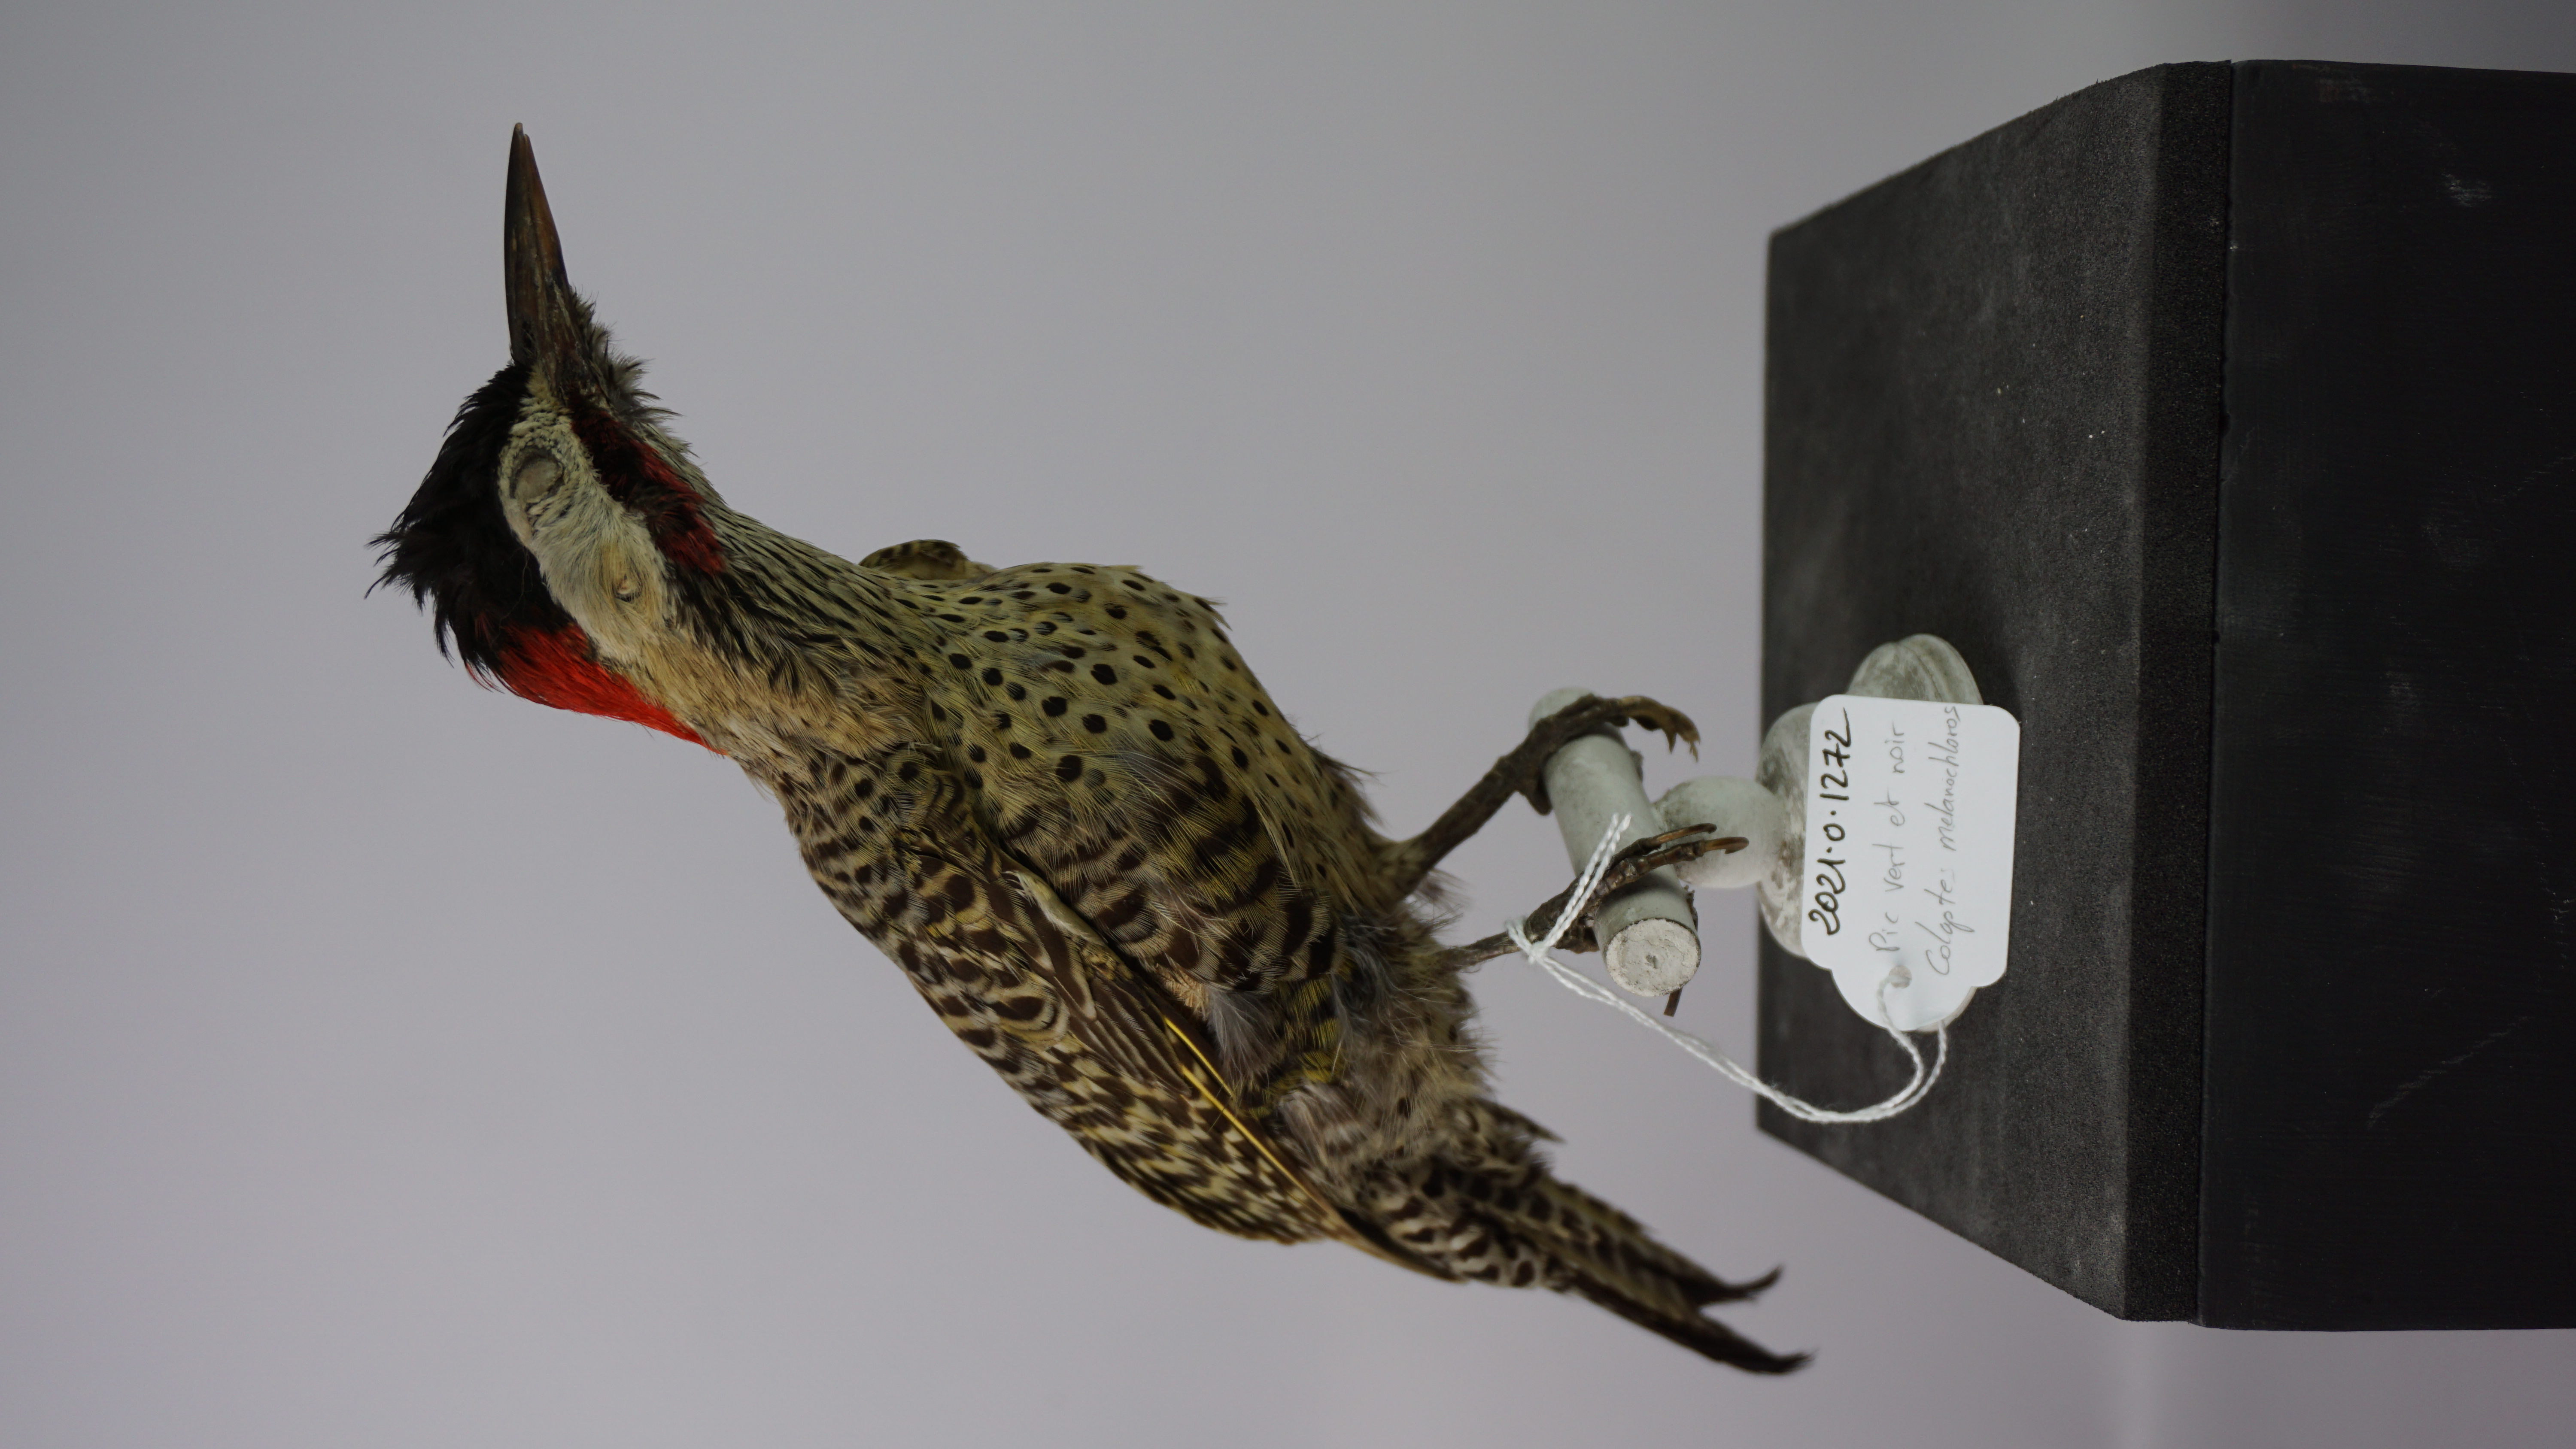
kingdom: Animalia
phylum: Chordata
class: Aves
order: Piciformes
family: Picidae
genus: Colaptes
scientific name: Colaptes melanochloros
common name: Green-barred woodpecker
